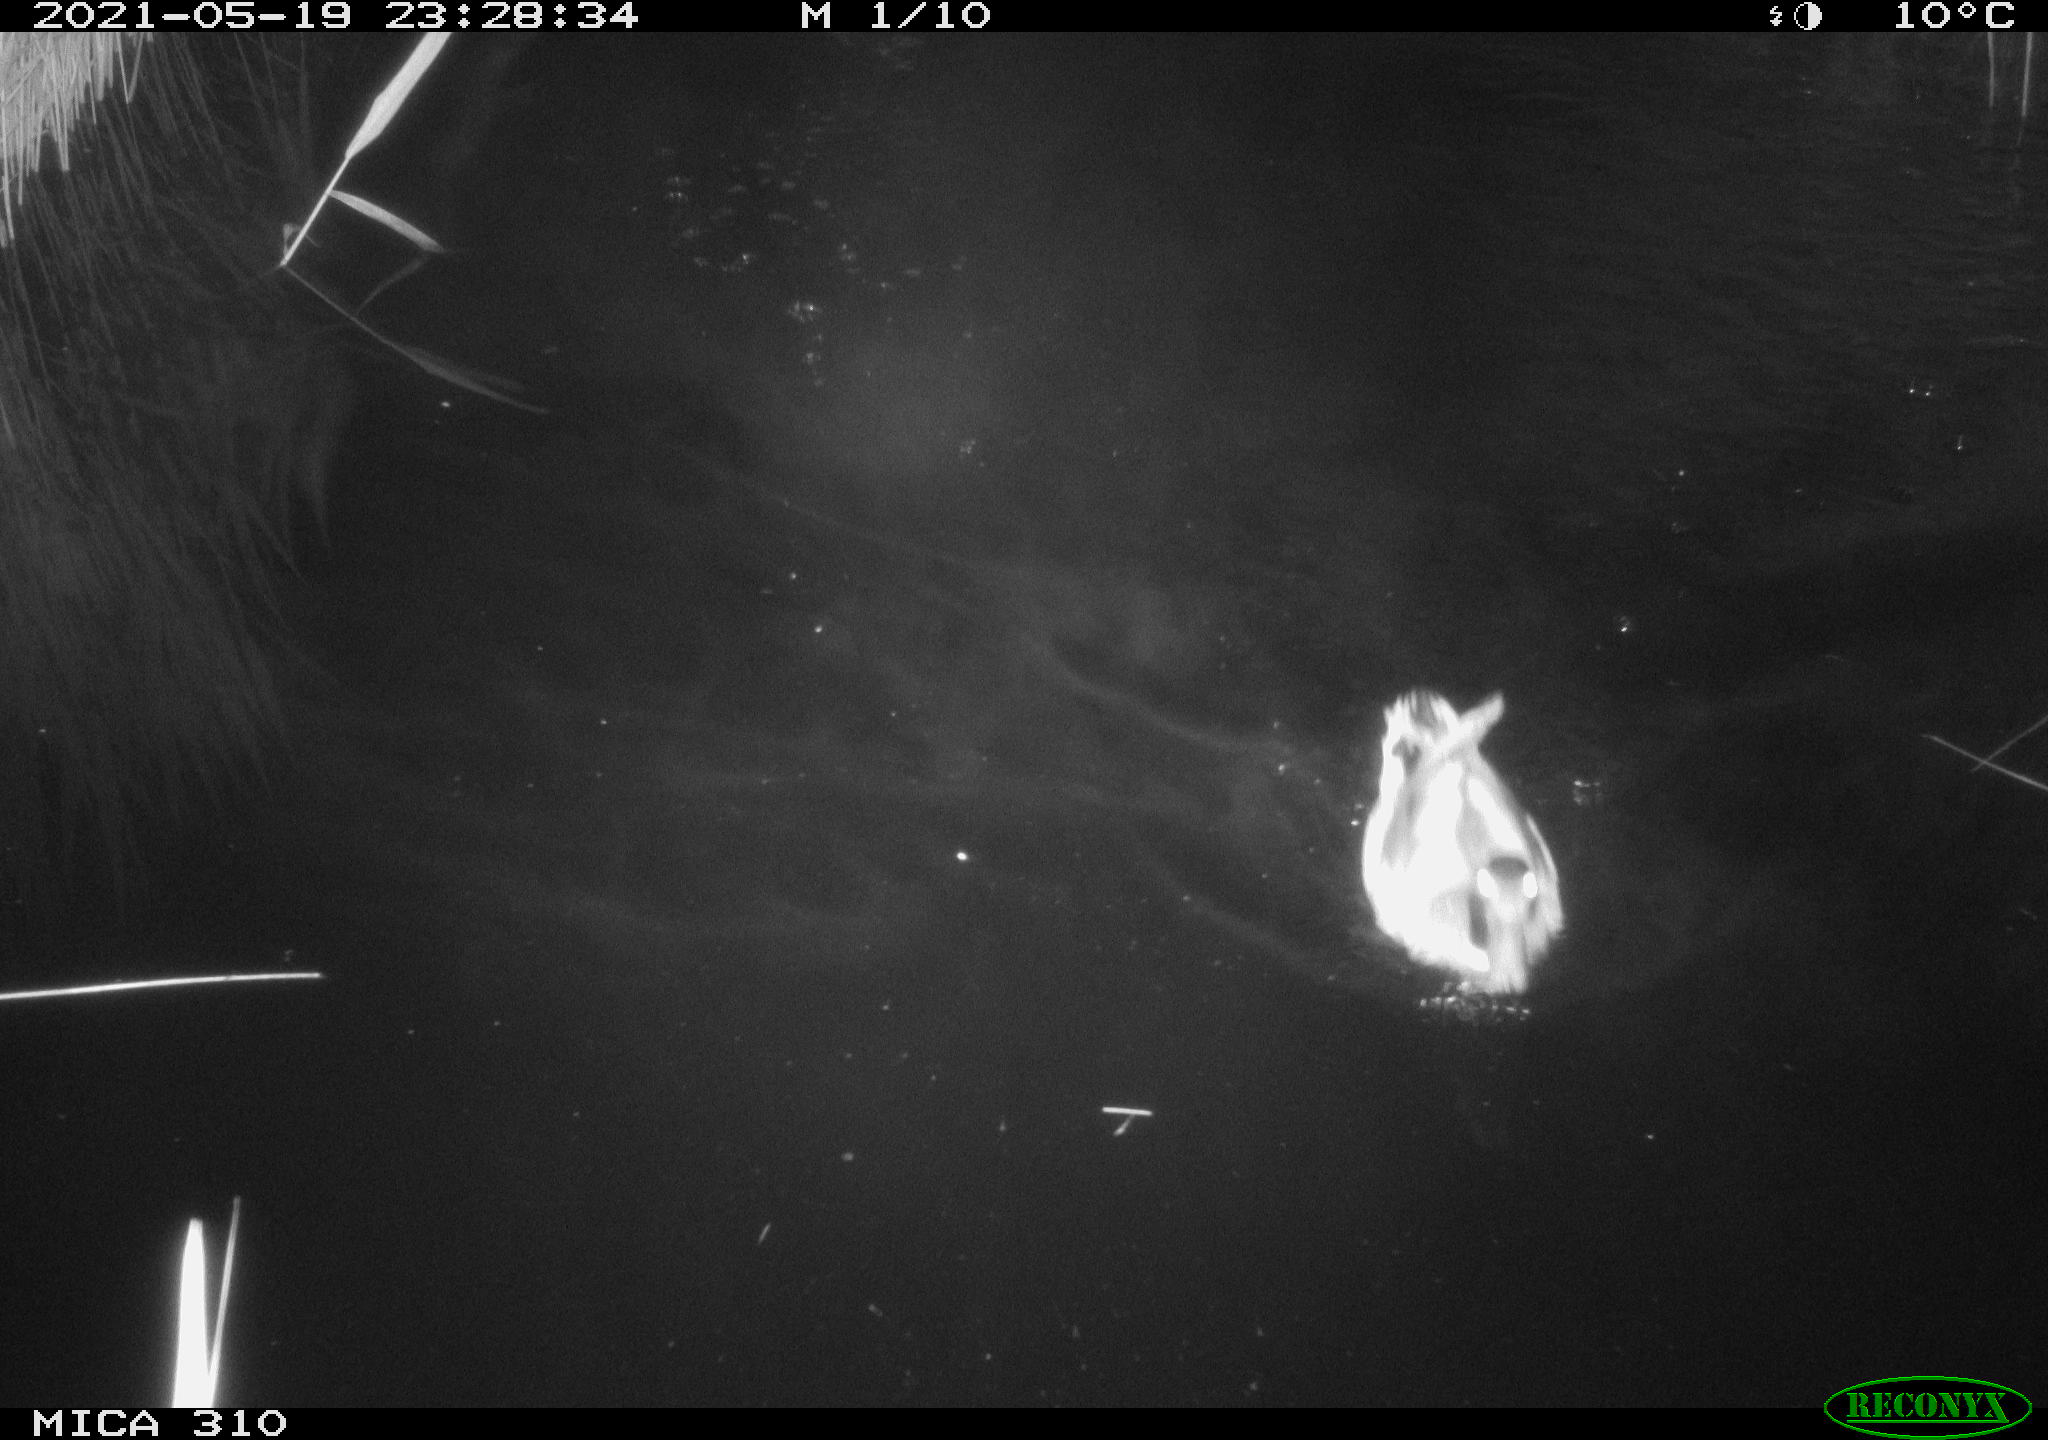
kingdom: Animalia
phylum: Chordata
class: Aves
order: Anseriformes
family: Anatidae
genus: Anas
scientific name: Anas platyrhynchos
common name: Mallard
